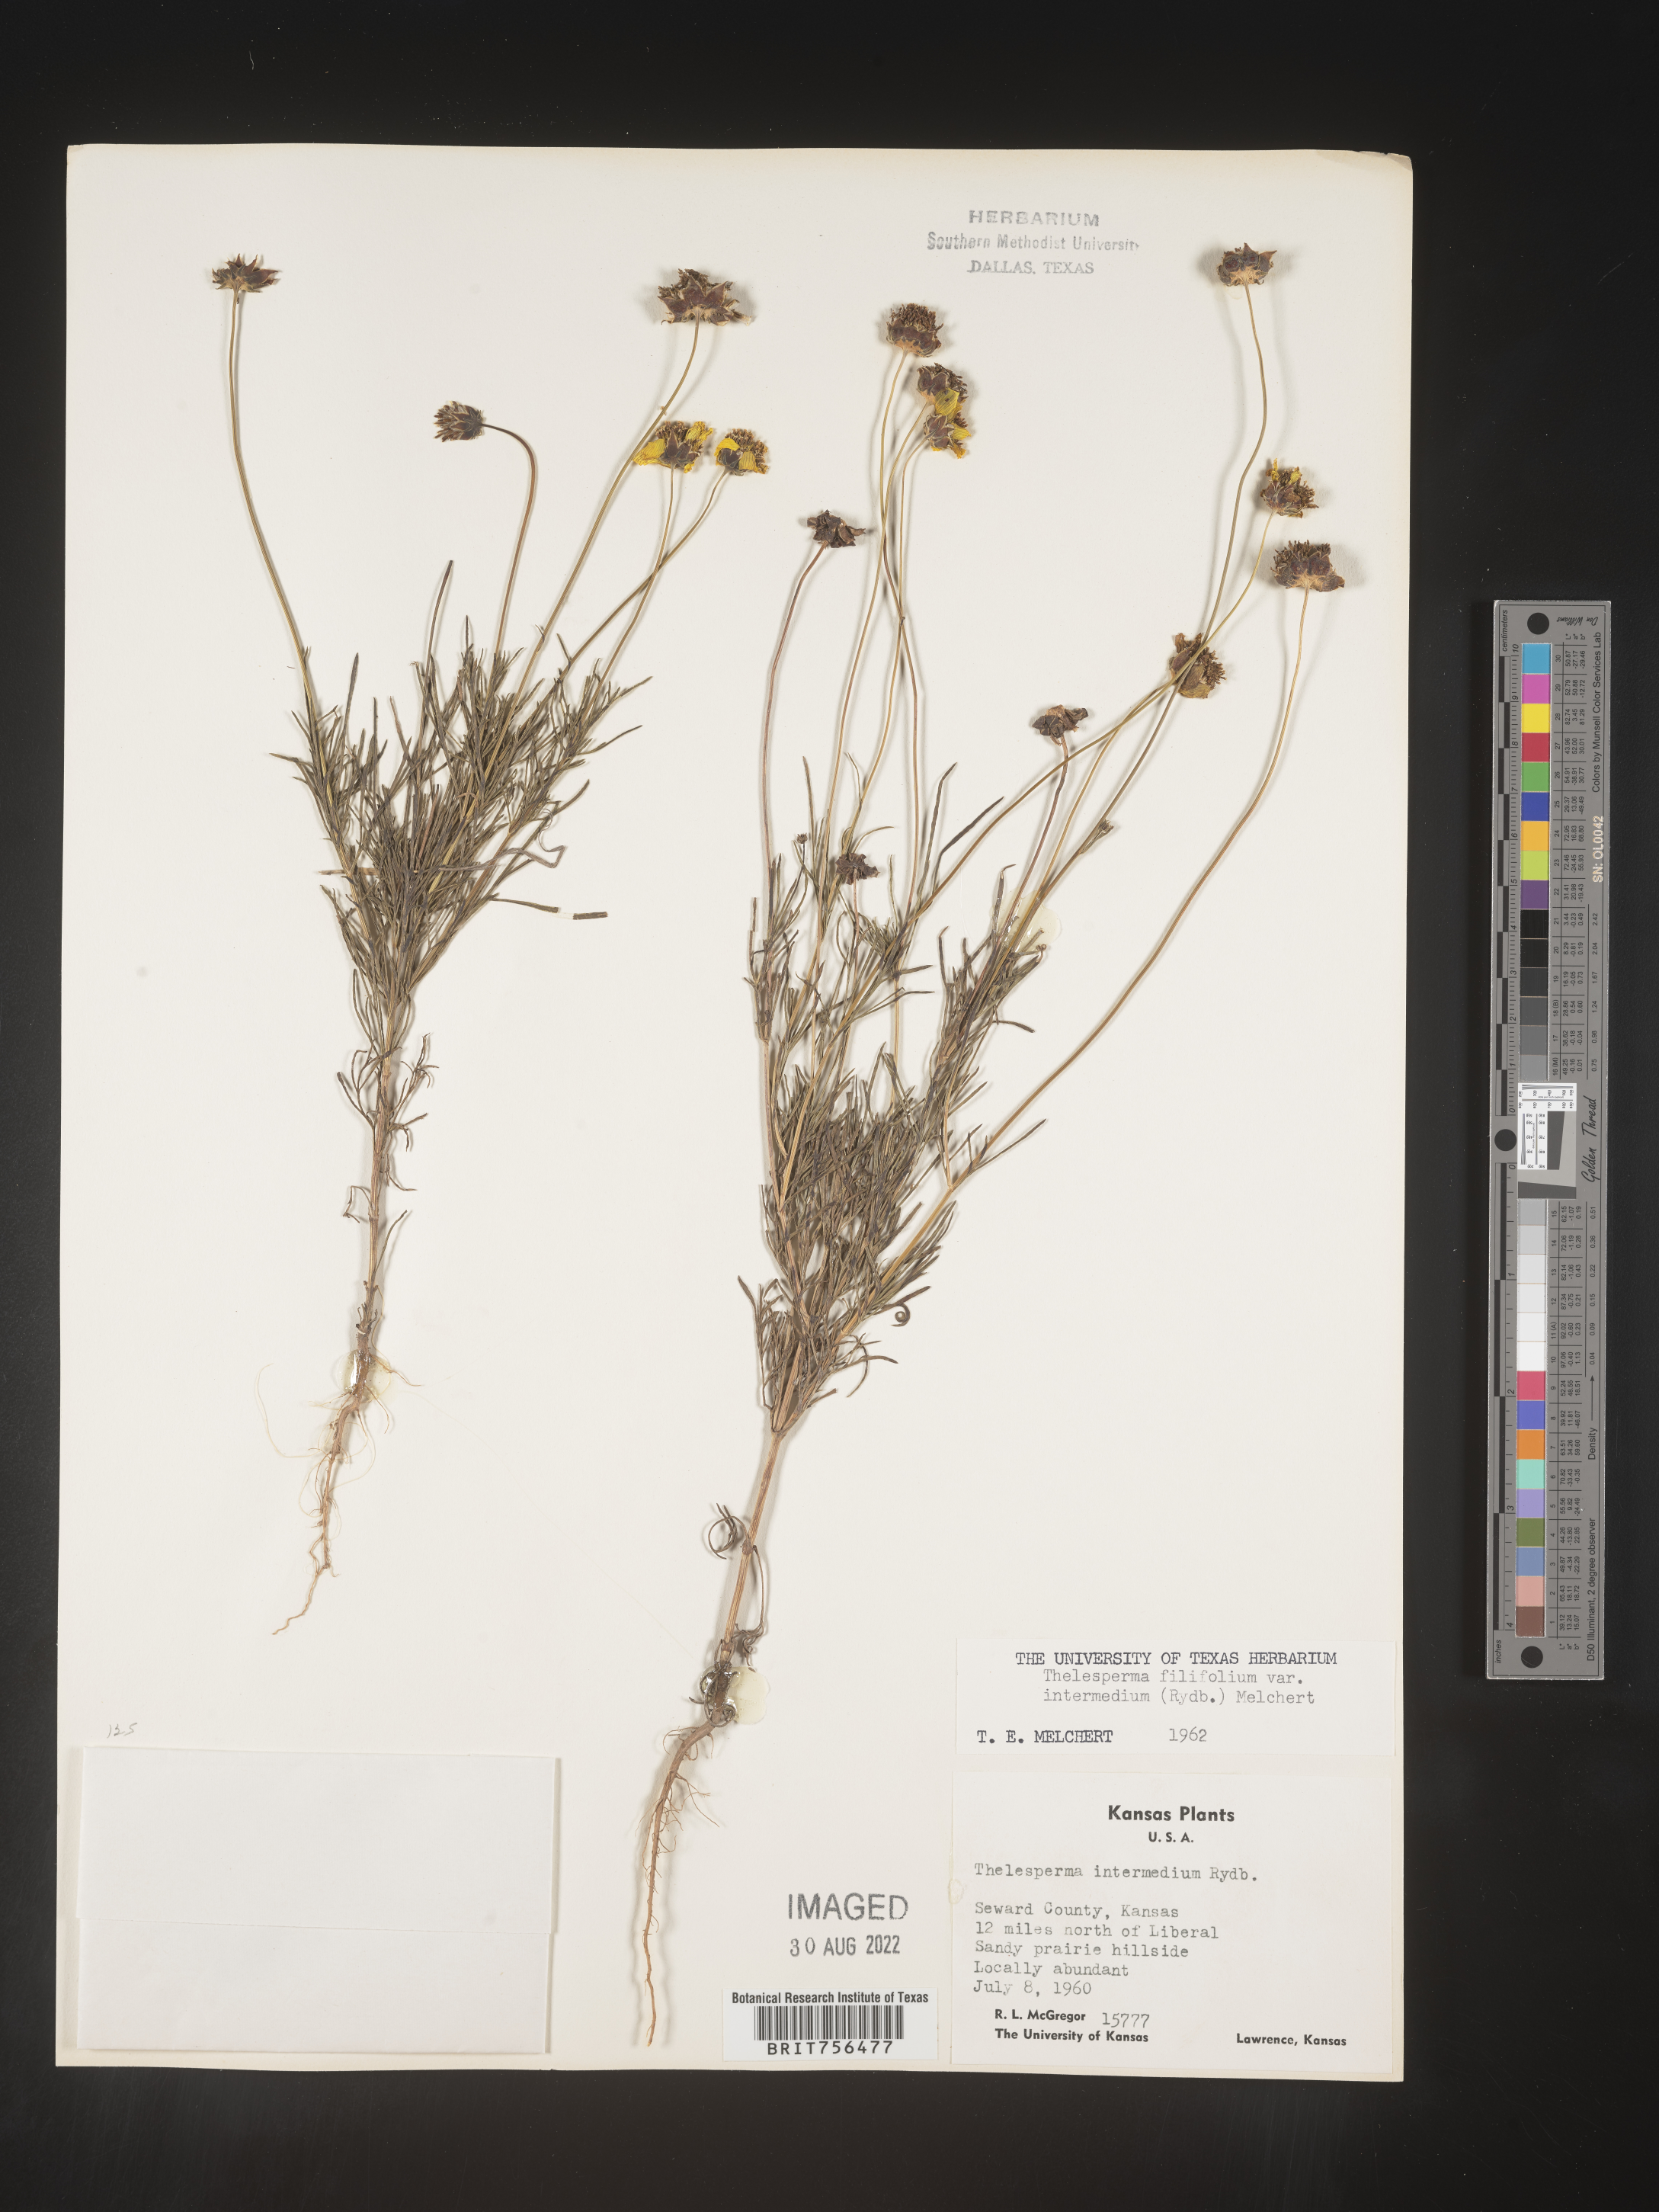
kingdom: Plantae
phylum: Tracheophyta
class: Magnoliopsida
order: Asterales
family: Asteraceae
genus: Thelesperma
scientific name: Thelesperma filifolium
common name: Stiff greenthread
